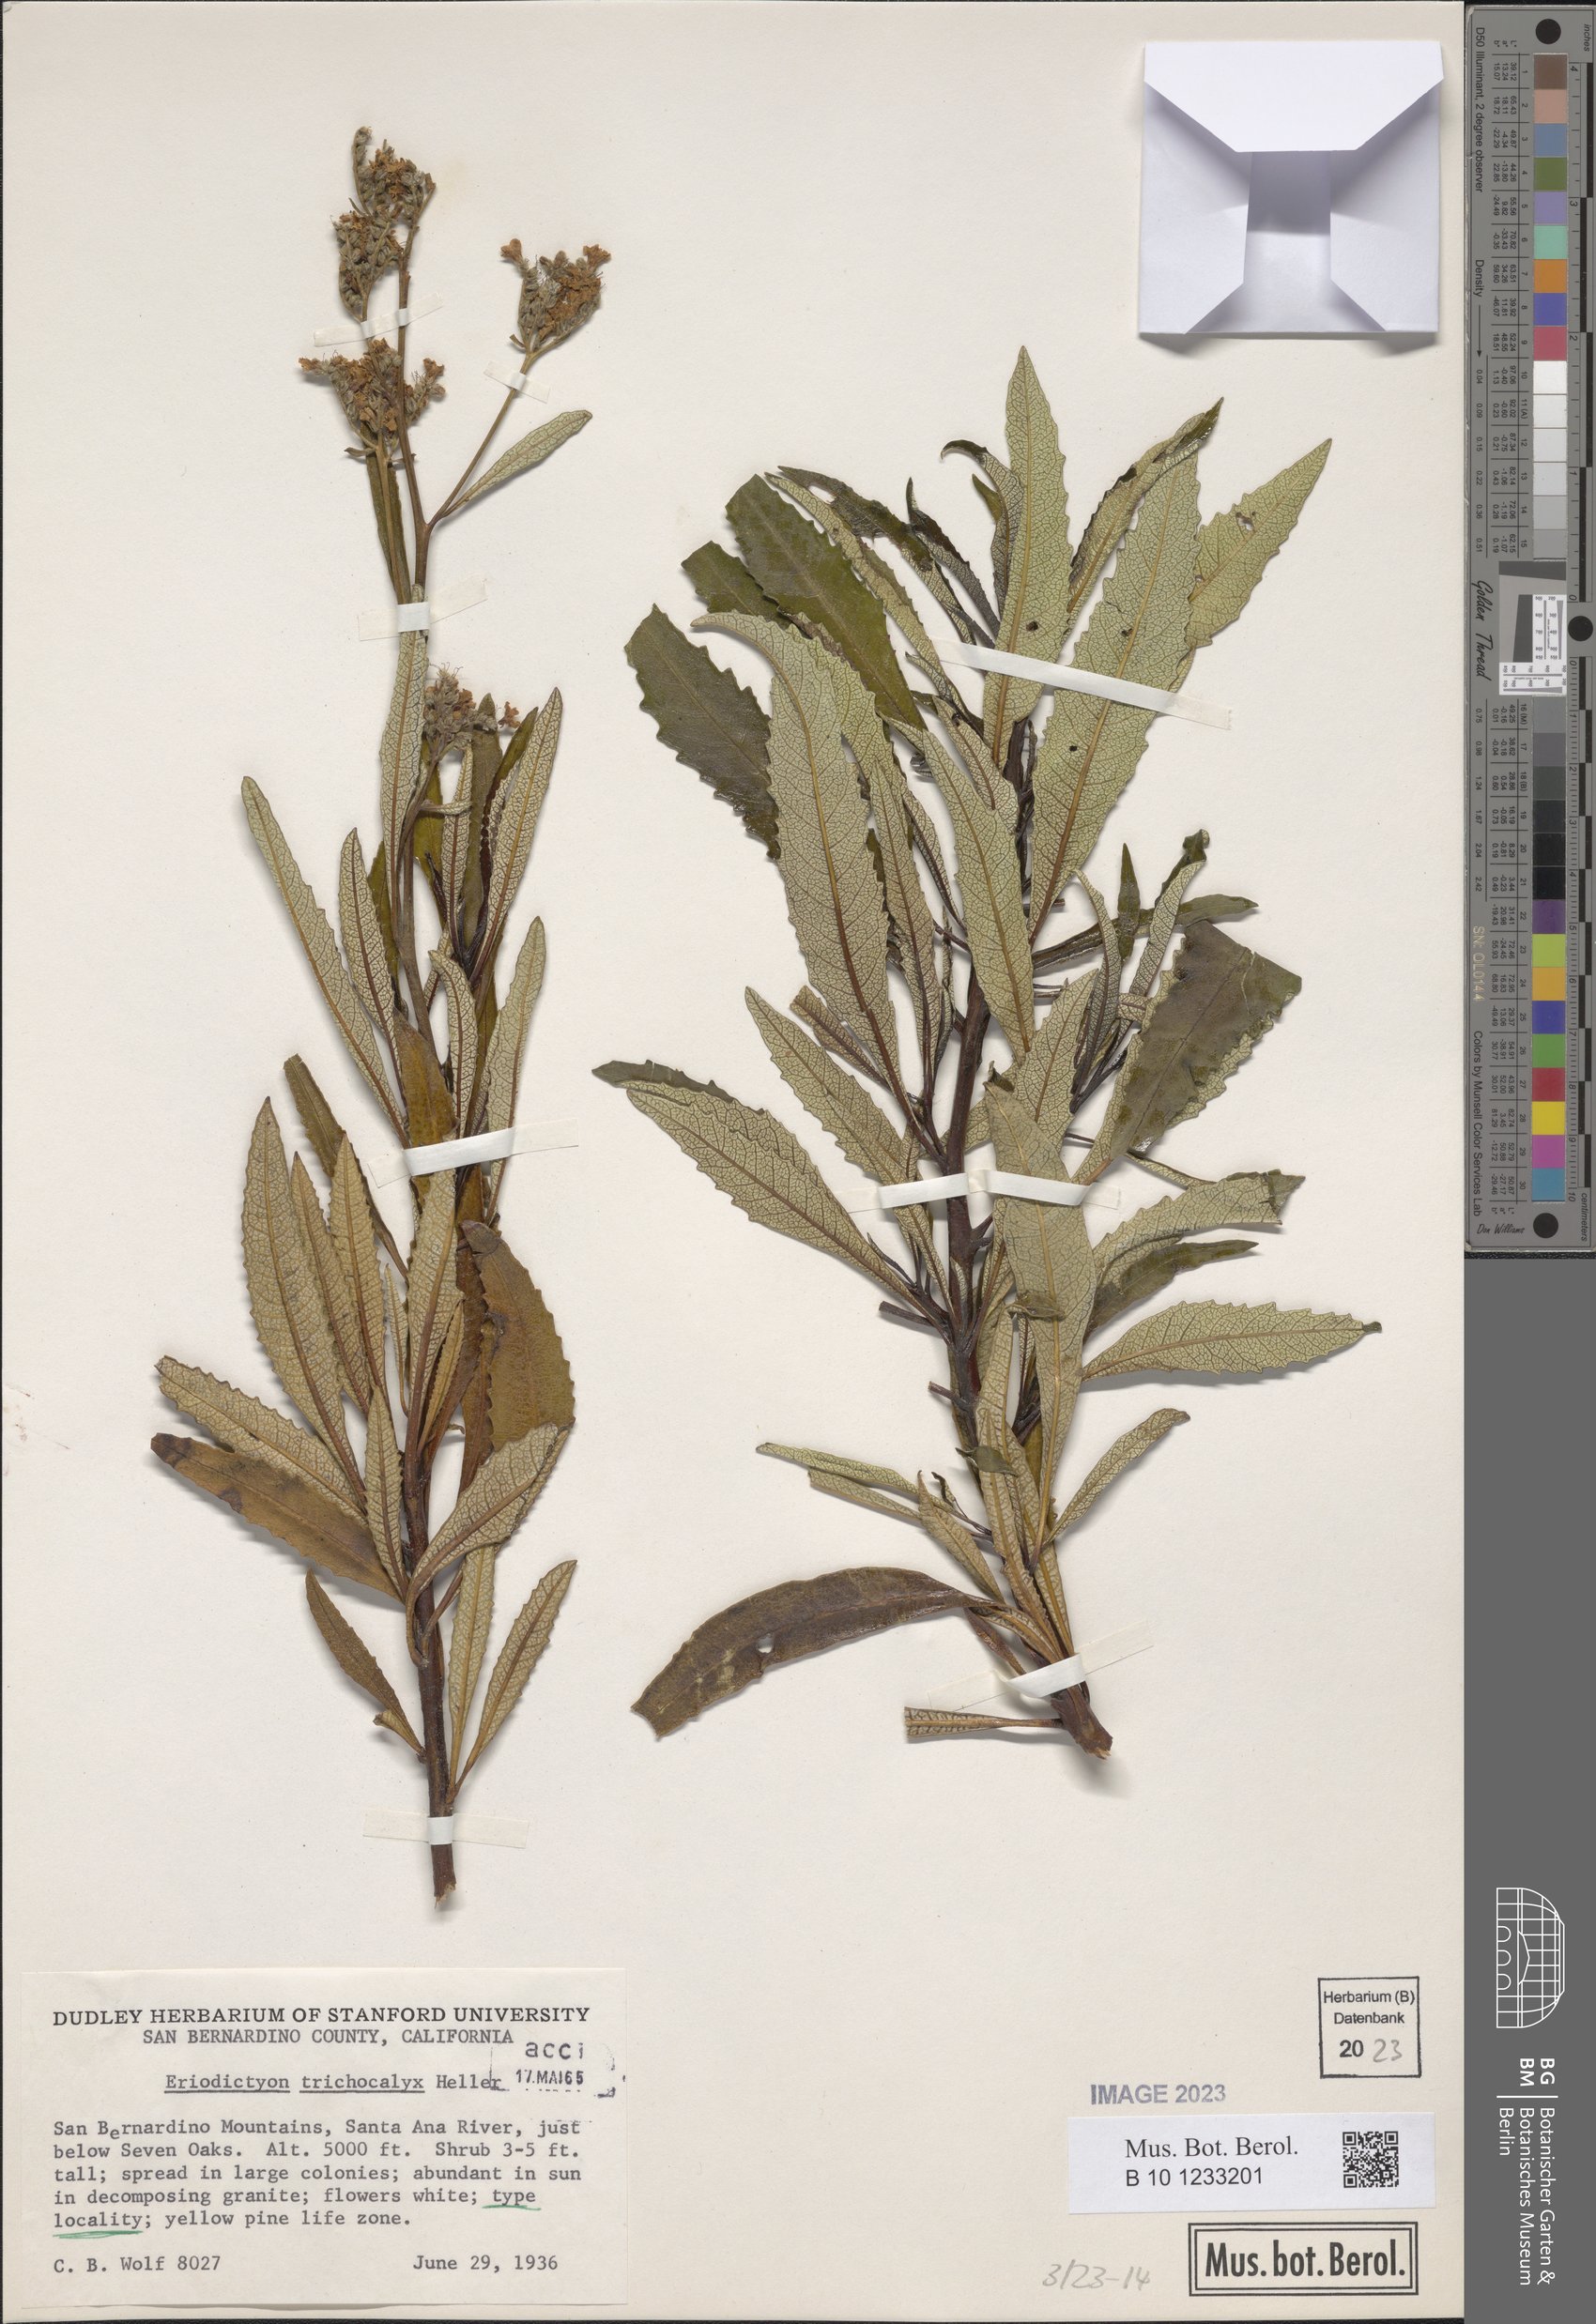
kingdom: Plantae
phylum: Tracheophyta
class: Magnoliopsida
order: Boraginales
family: Namaceae
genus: Eriodictyon
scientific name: Eriodictyon trichocalyx
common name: Hairy yerba-santa
